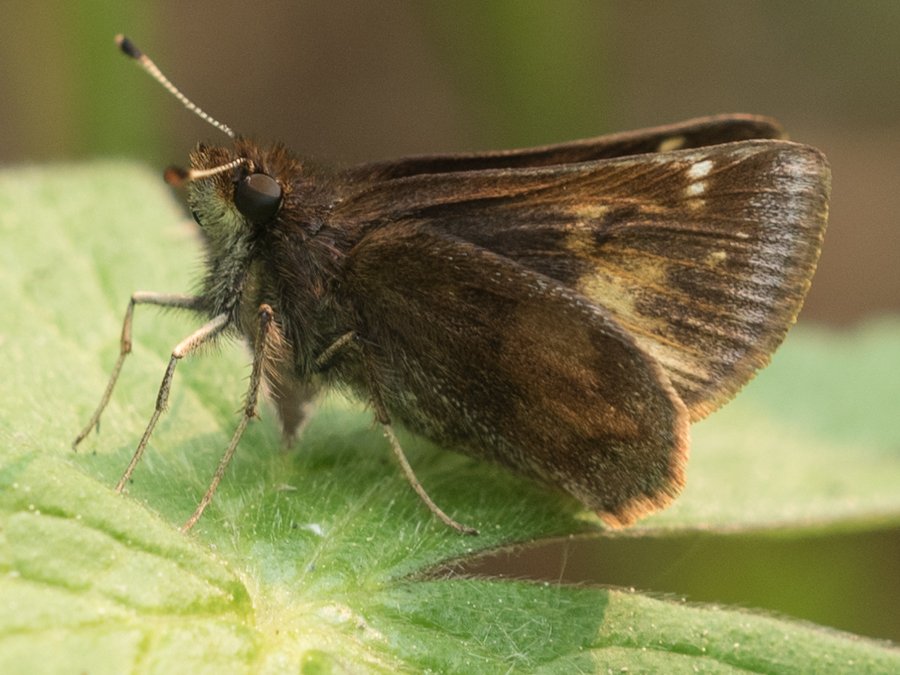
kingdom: Animalia
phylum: Arthropoda
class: Insecta
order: Lepidoptera
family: Hesperiidae
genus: Lon
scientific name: Lon hobomok
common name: Hobomok Skipper
